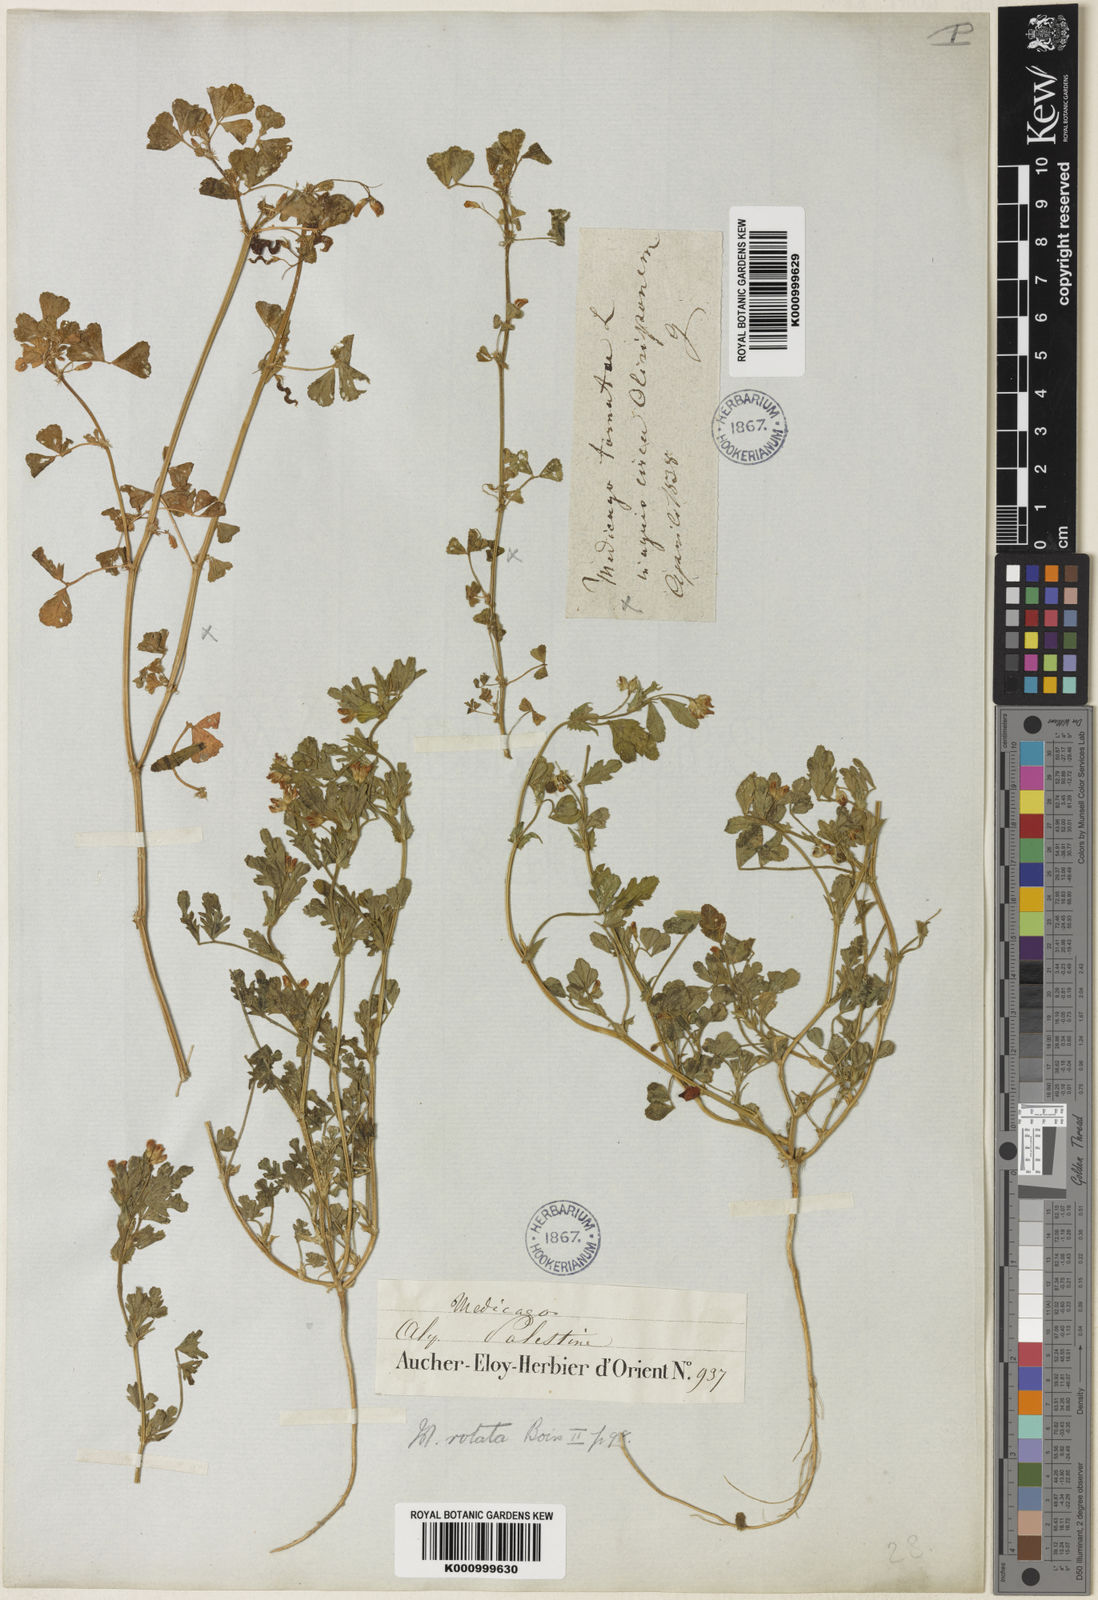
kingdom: Plantae
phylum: Tracheophyta
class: Magnoliopsida
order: Fabales
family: Fabaceae
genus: Medicago
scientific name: Medicago rotata
